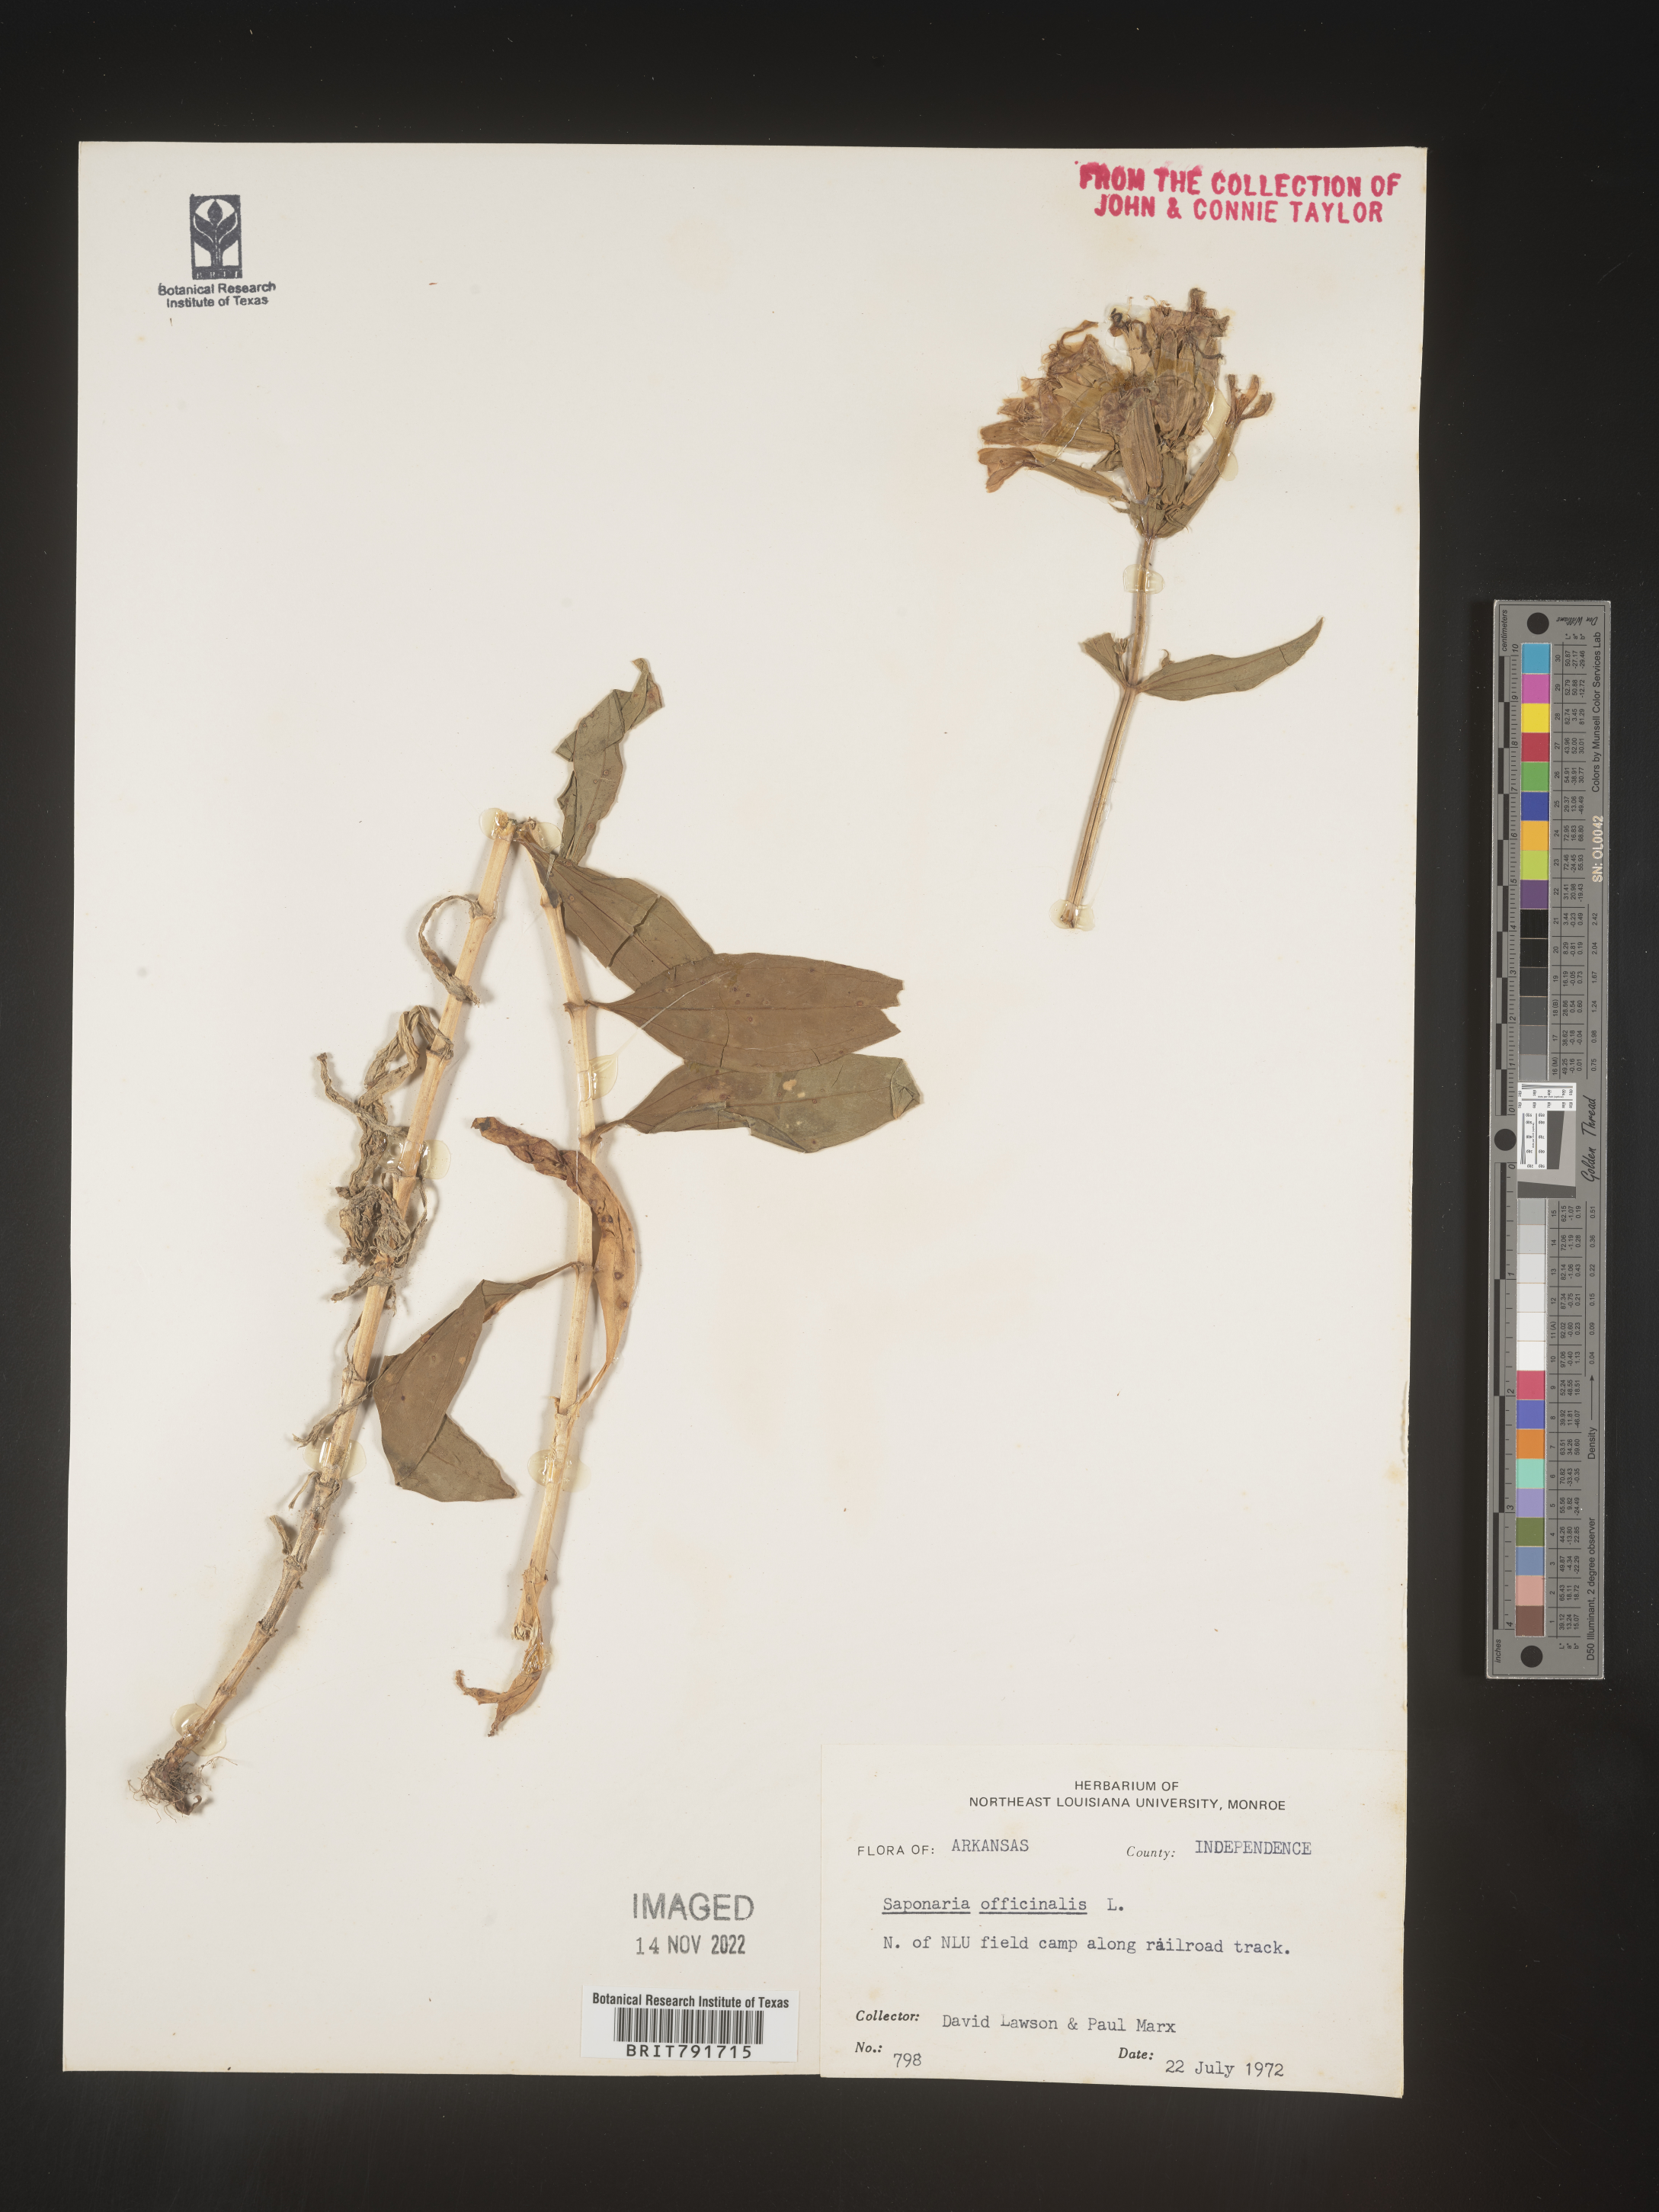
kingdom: Plantae
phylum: Tracheophyta
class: Magnoliopsida
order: Caryophyllales
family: Caryophyllaceae
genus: Saponaria
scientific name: Saponaria officinalis
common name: Soapwort
